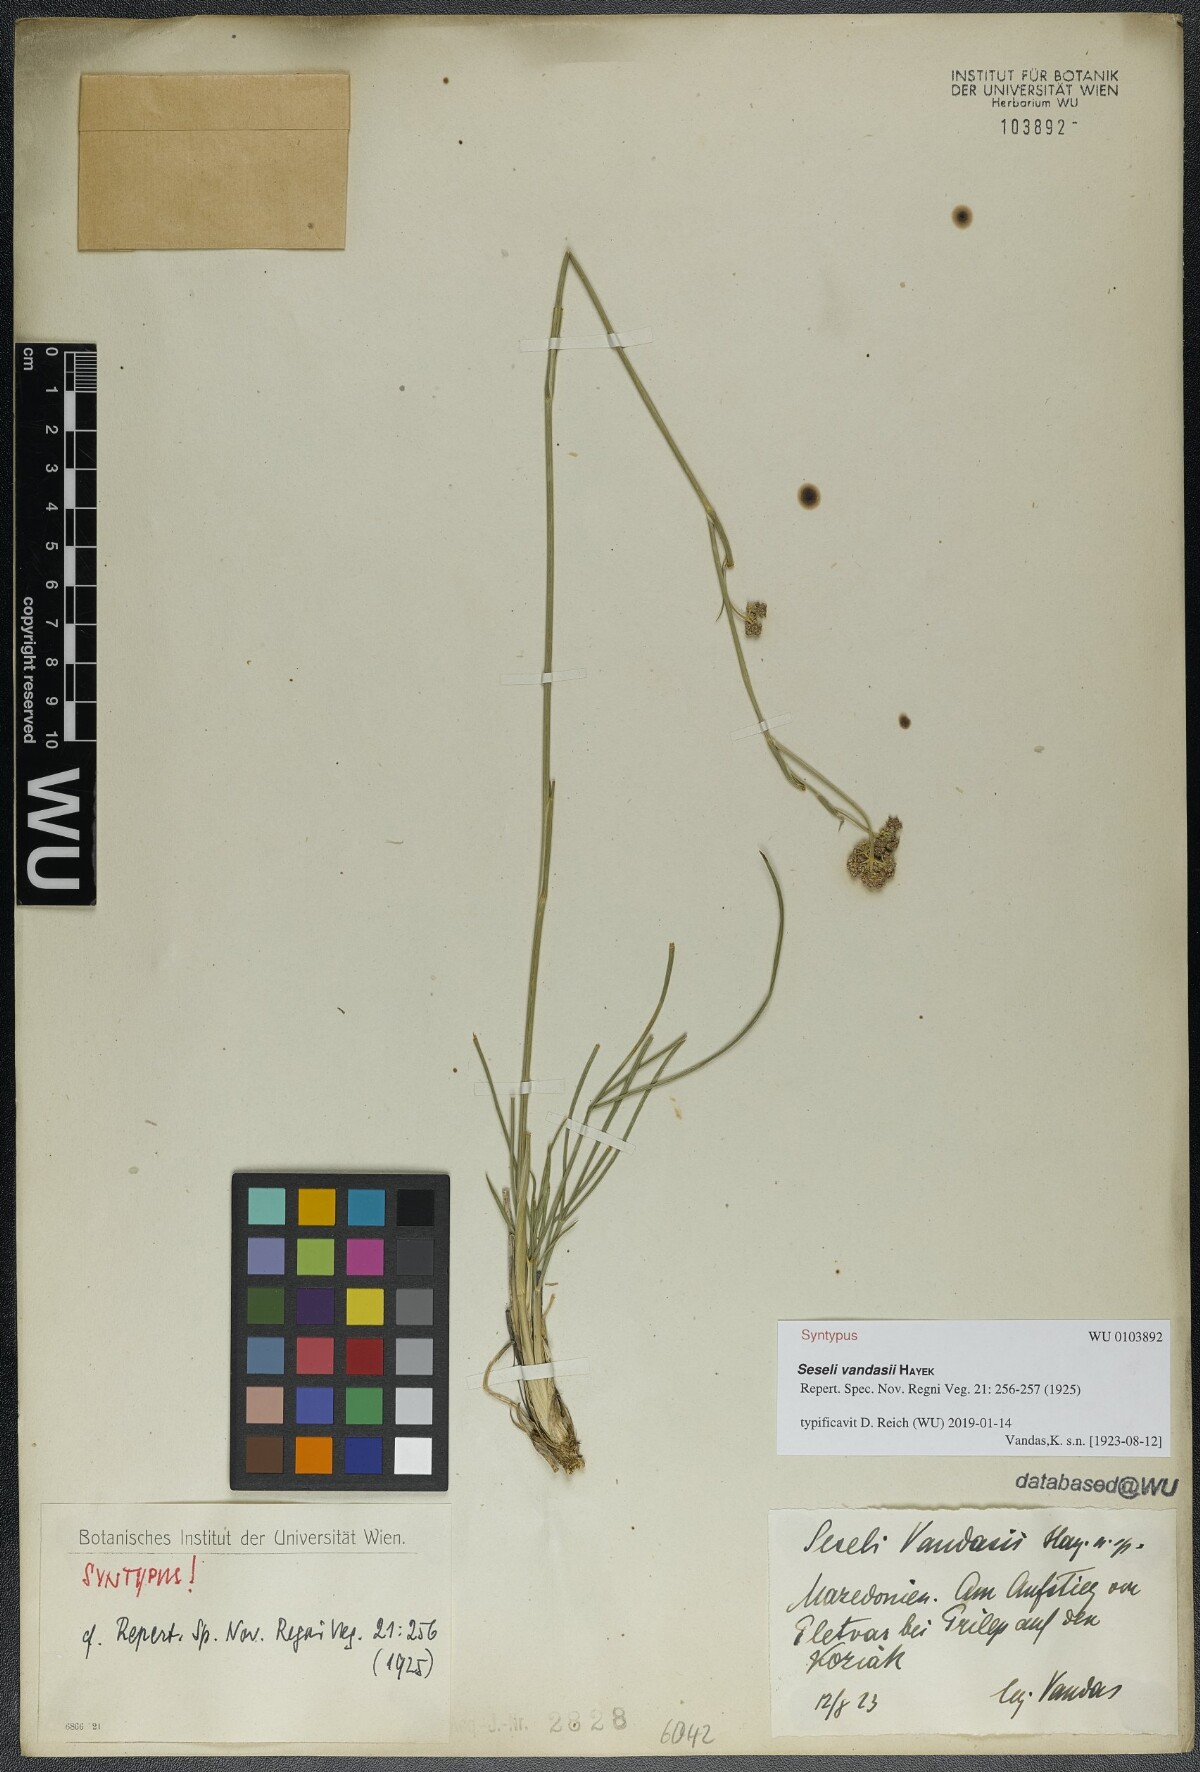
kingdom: Plantae
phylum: Tracheophyta
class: Magnoliopsida
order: Apiales
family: Apiaceae
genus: Seseli
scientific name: Seseli vandasii
